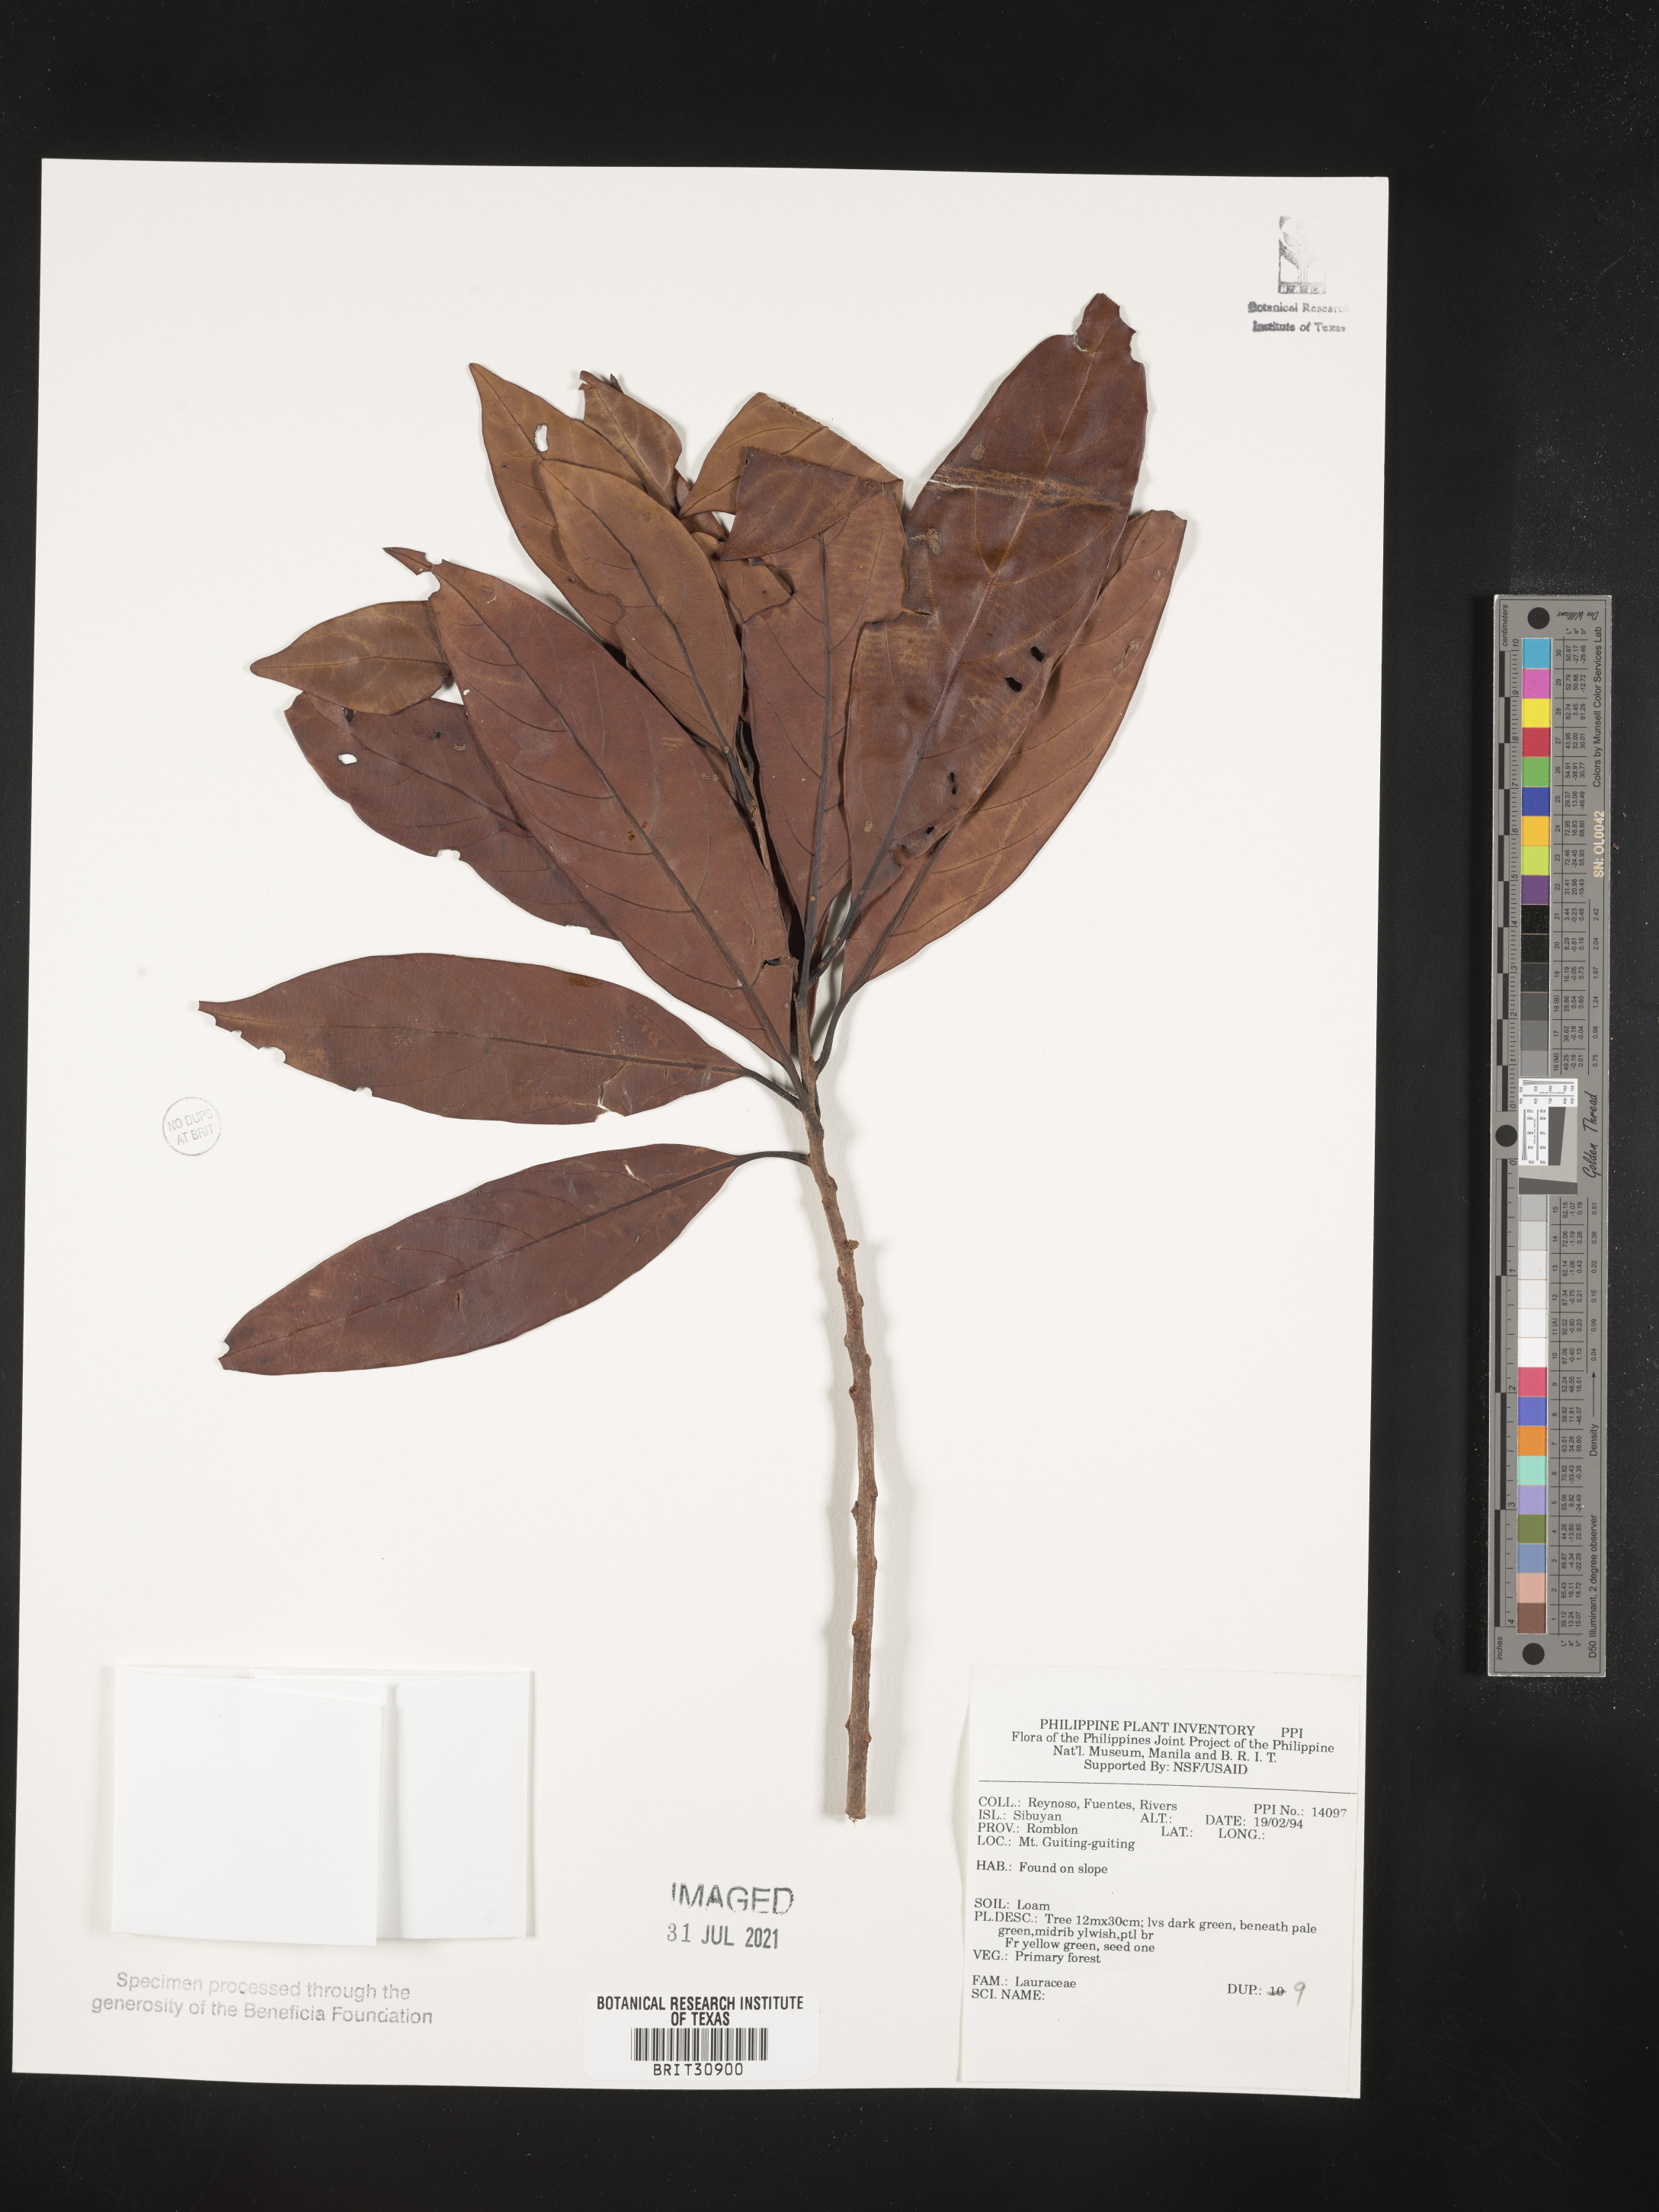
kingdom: Plantae
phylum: Tracheophyta
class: Magnoliopsida
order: Laurales
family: Lauraceae
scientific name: Lauraceae
